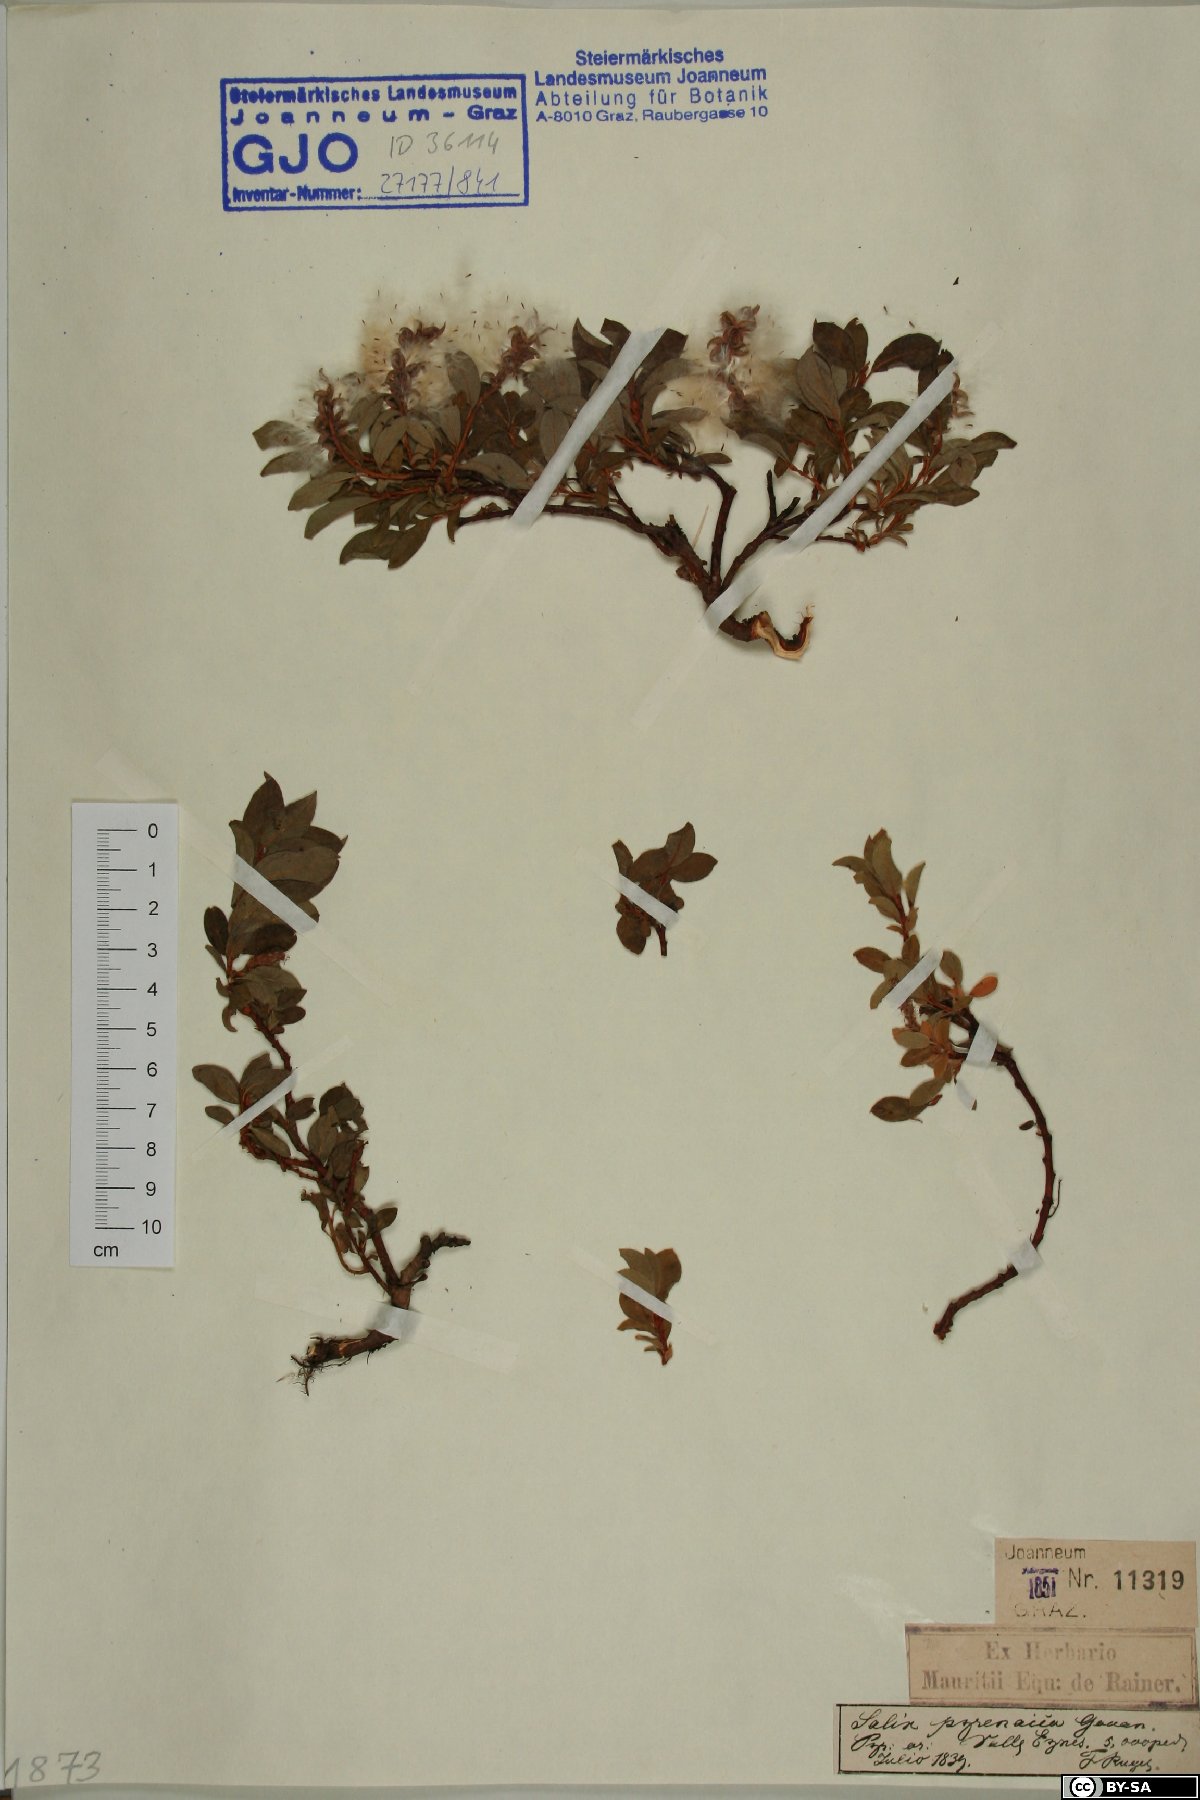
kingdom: Plantae
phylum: Tracheophyta
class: Magnoliopsida
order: Malpighiales
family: Salicaceae
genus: Salix
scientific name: Salix pyrenaica
